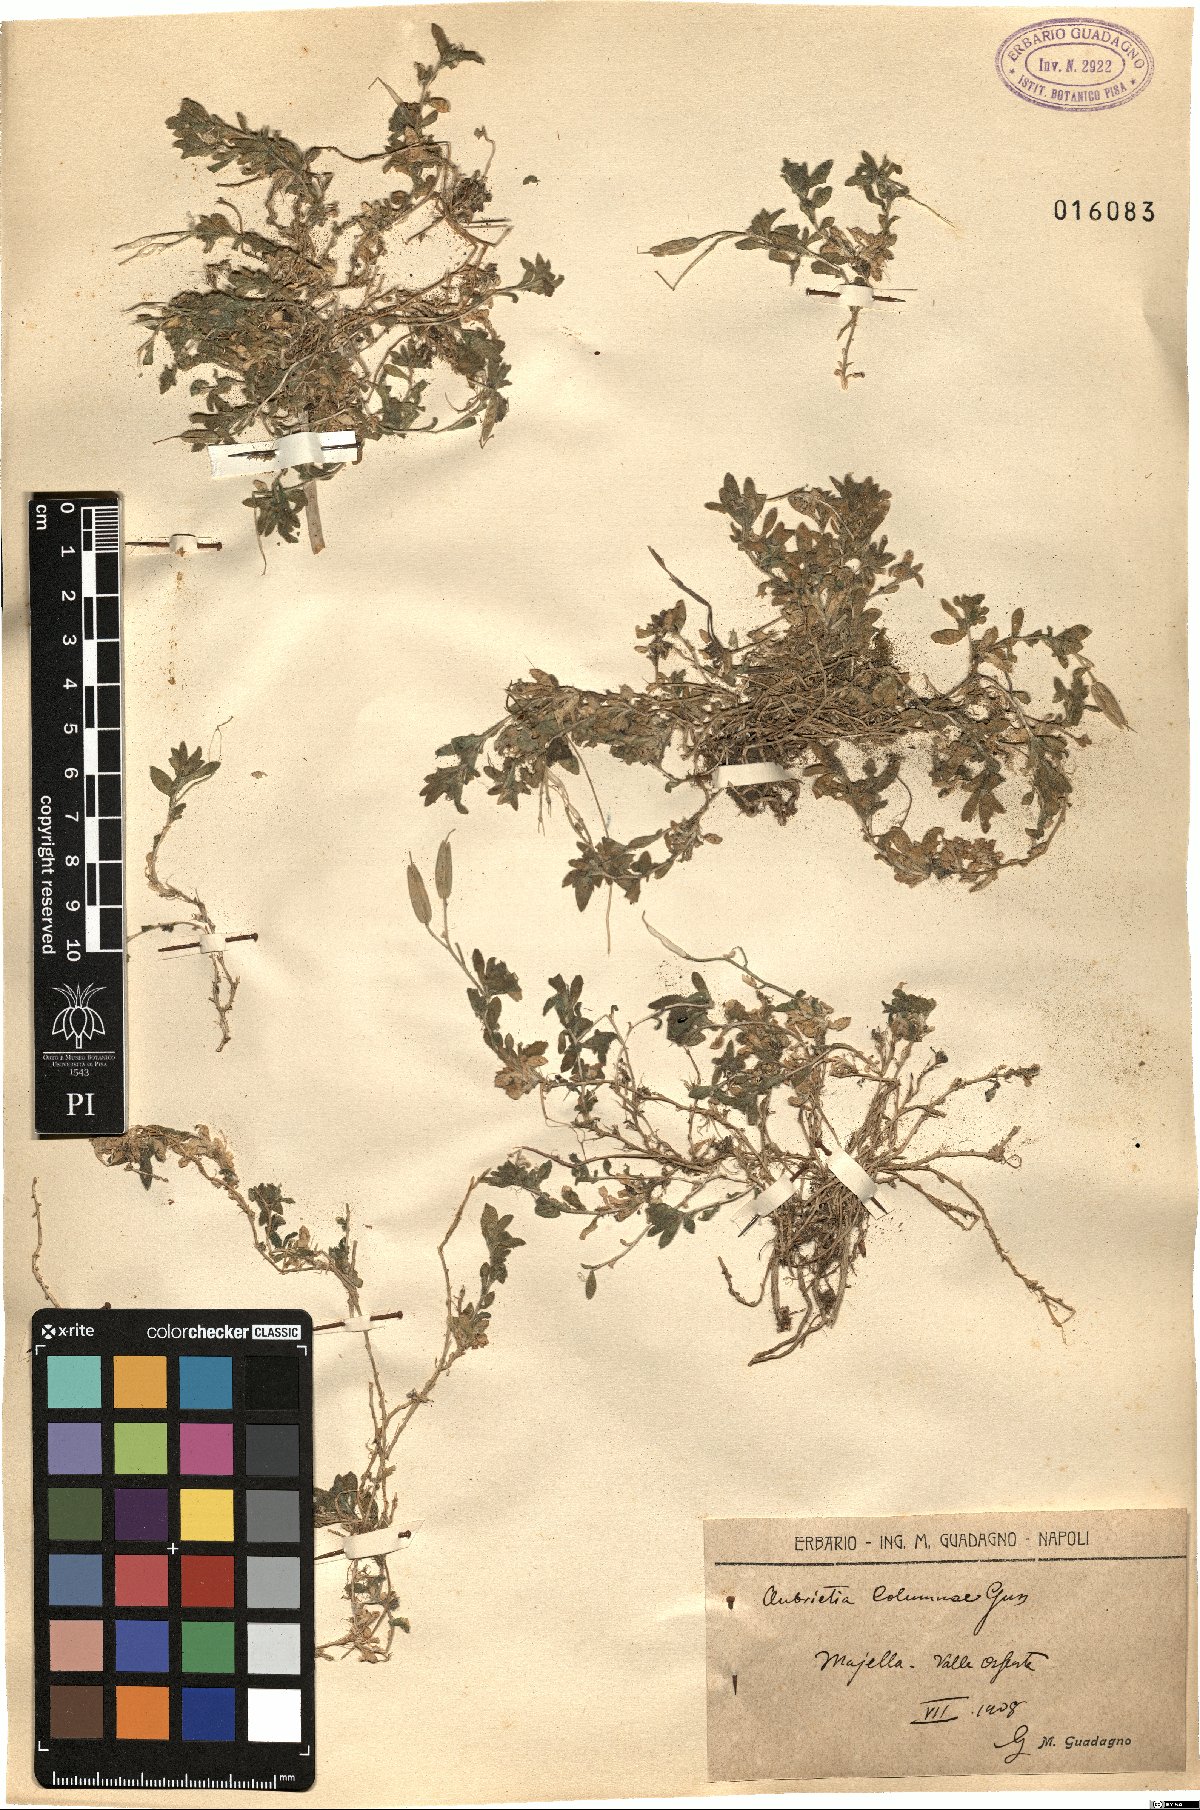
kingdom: Plantae
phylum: Tracheophyta
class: Magnoliopsida
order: Brassicales
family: Brassicaceae
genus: Aubrieta
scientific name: Aubrieta columnae
